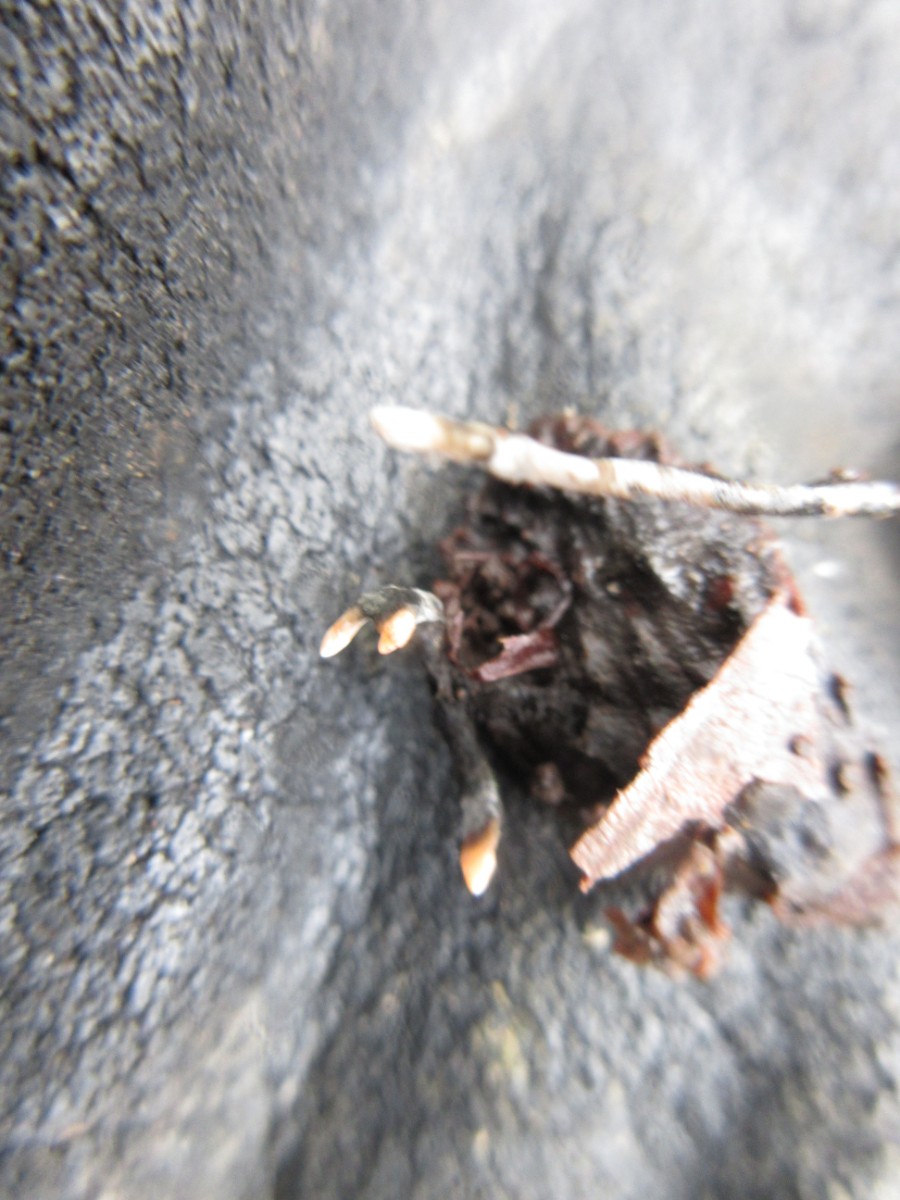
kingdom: Fungi
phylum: Ascomycota
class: Sordariomycetes
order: Xylariales
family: Xylariaceae
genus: Xylaria
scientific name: Xylaria carpophila
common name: bogskål-stødsvamp
